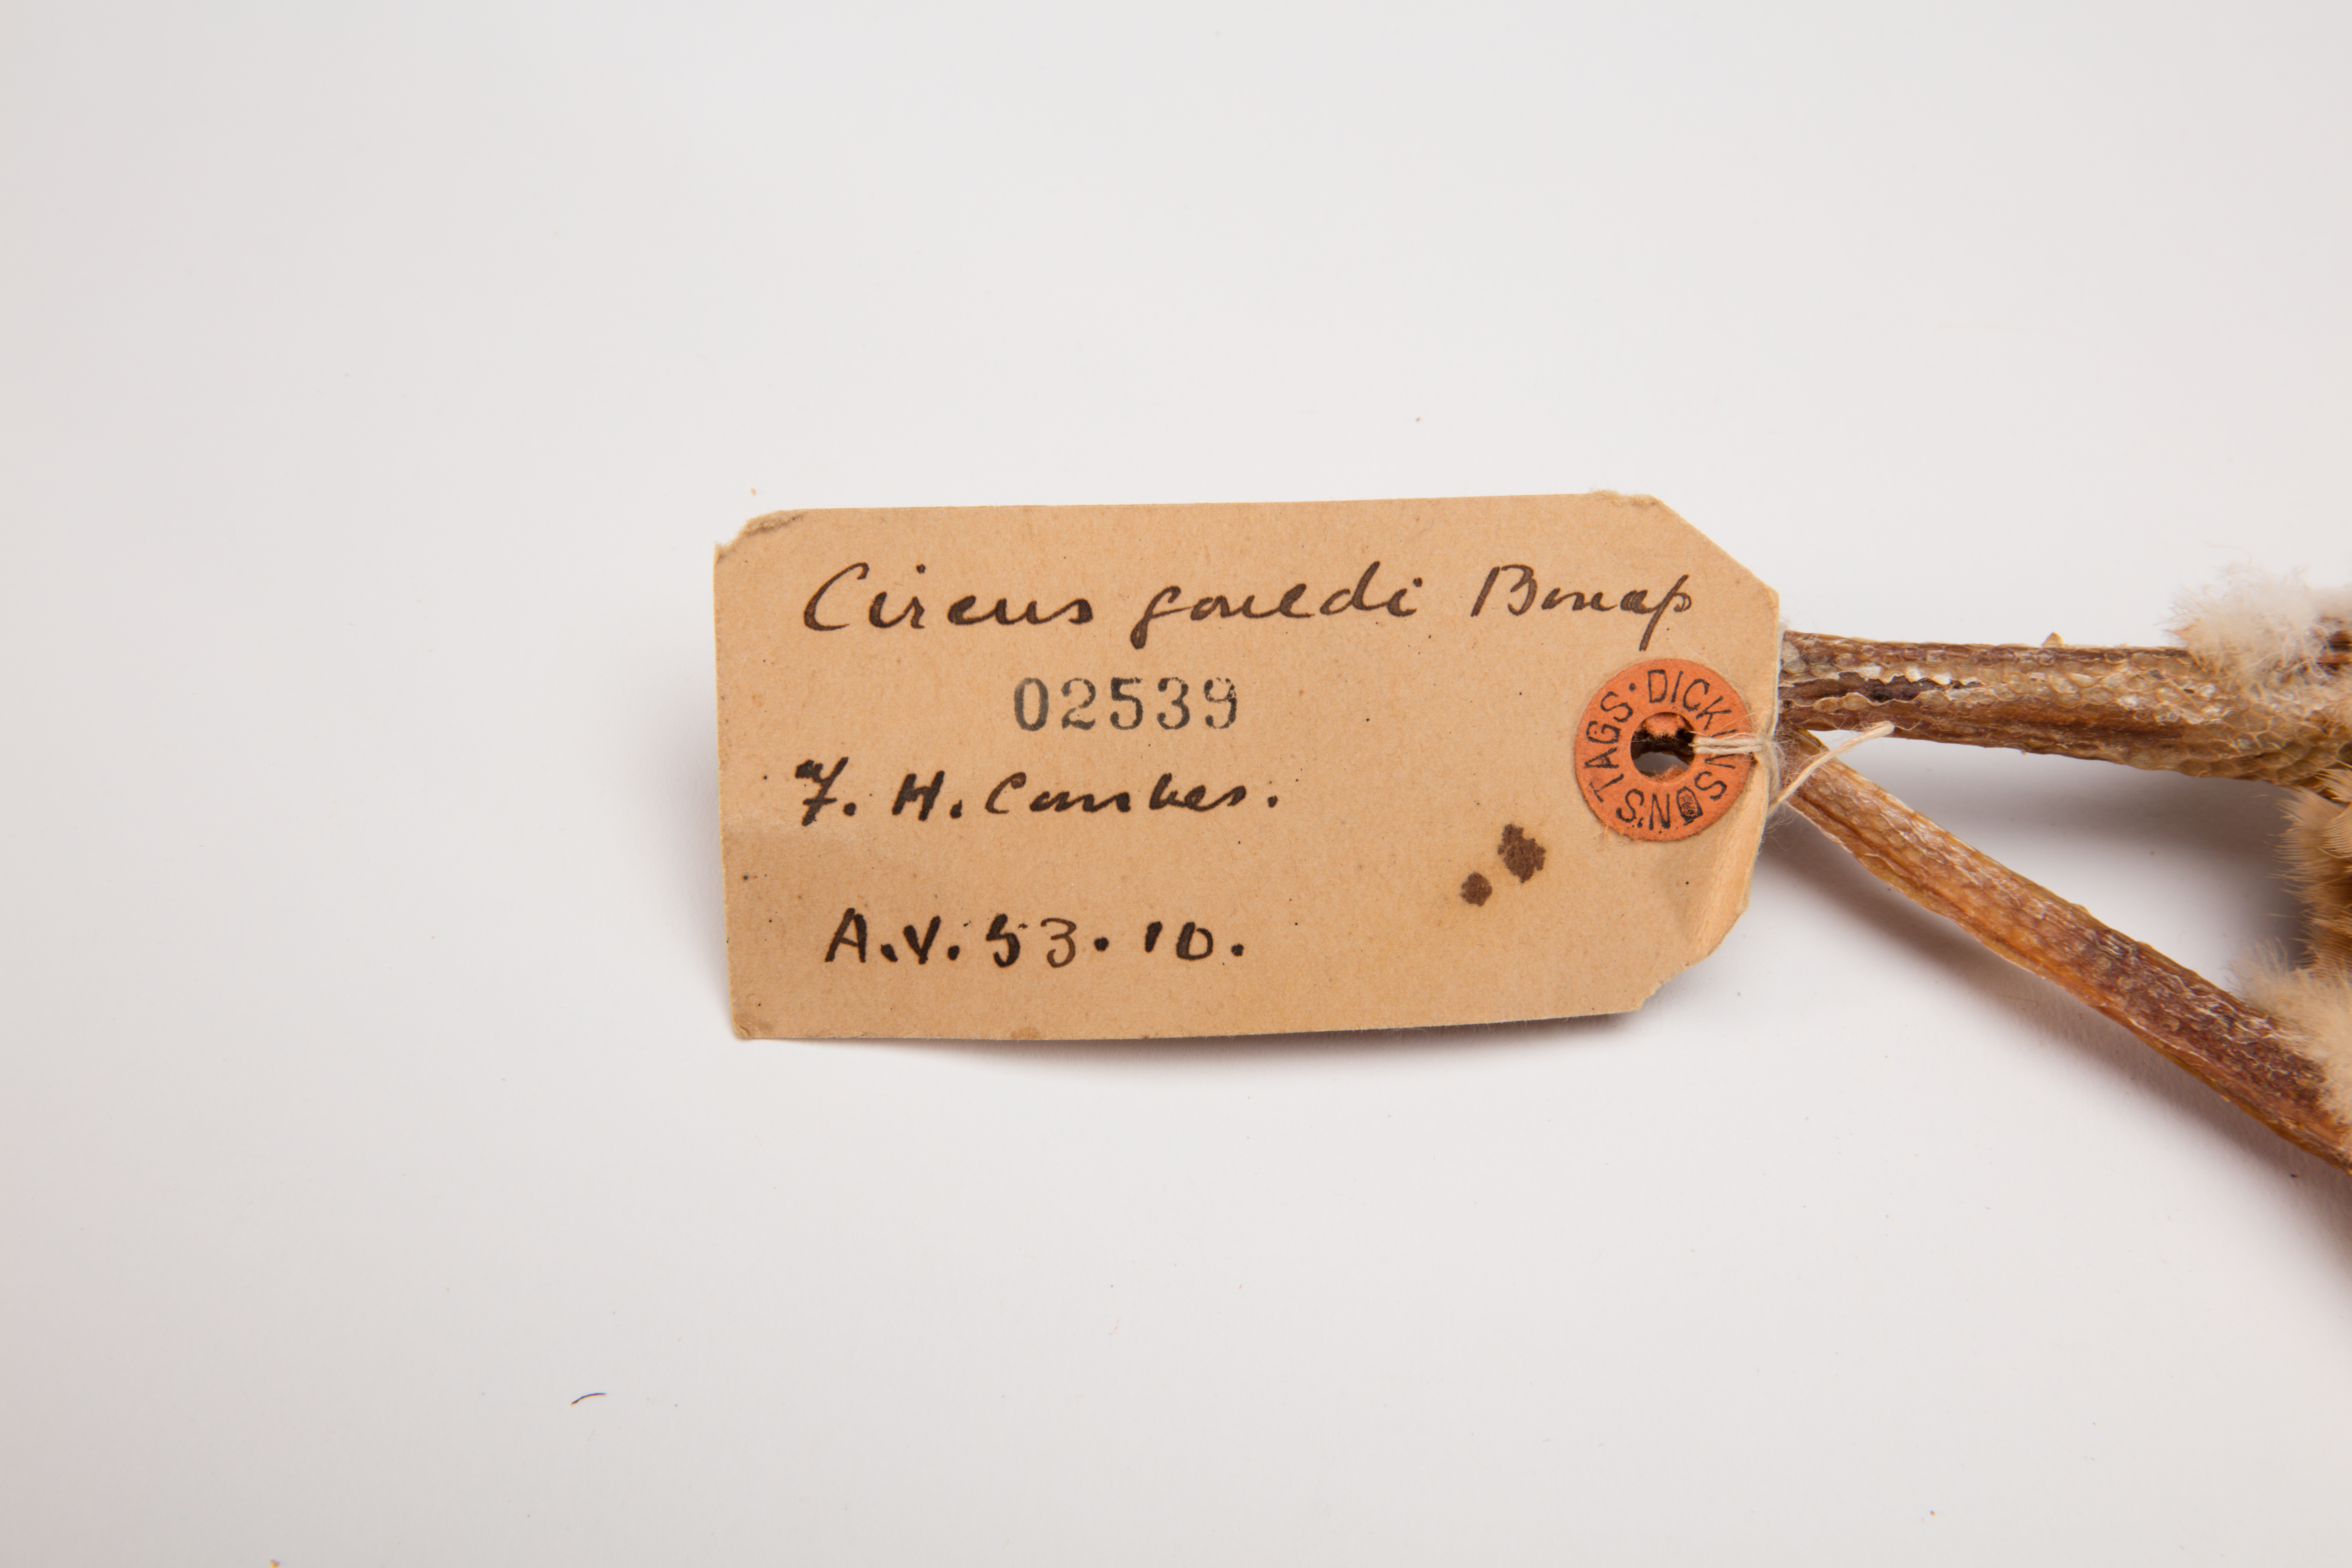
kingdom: Animalia
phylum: Chordata
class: Aves
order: Accipitriformes
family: Accipitridae
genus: Circus
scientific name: Circus approximans
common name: Swamp harrier
